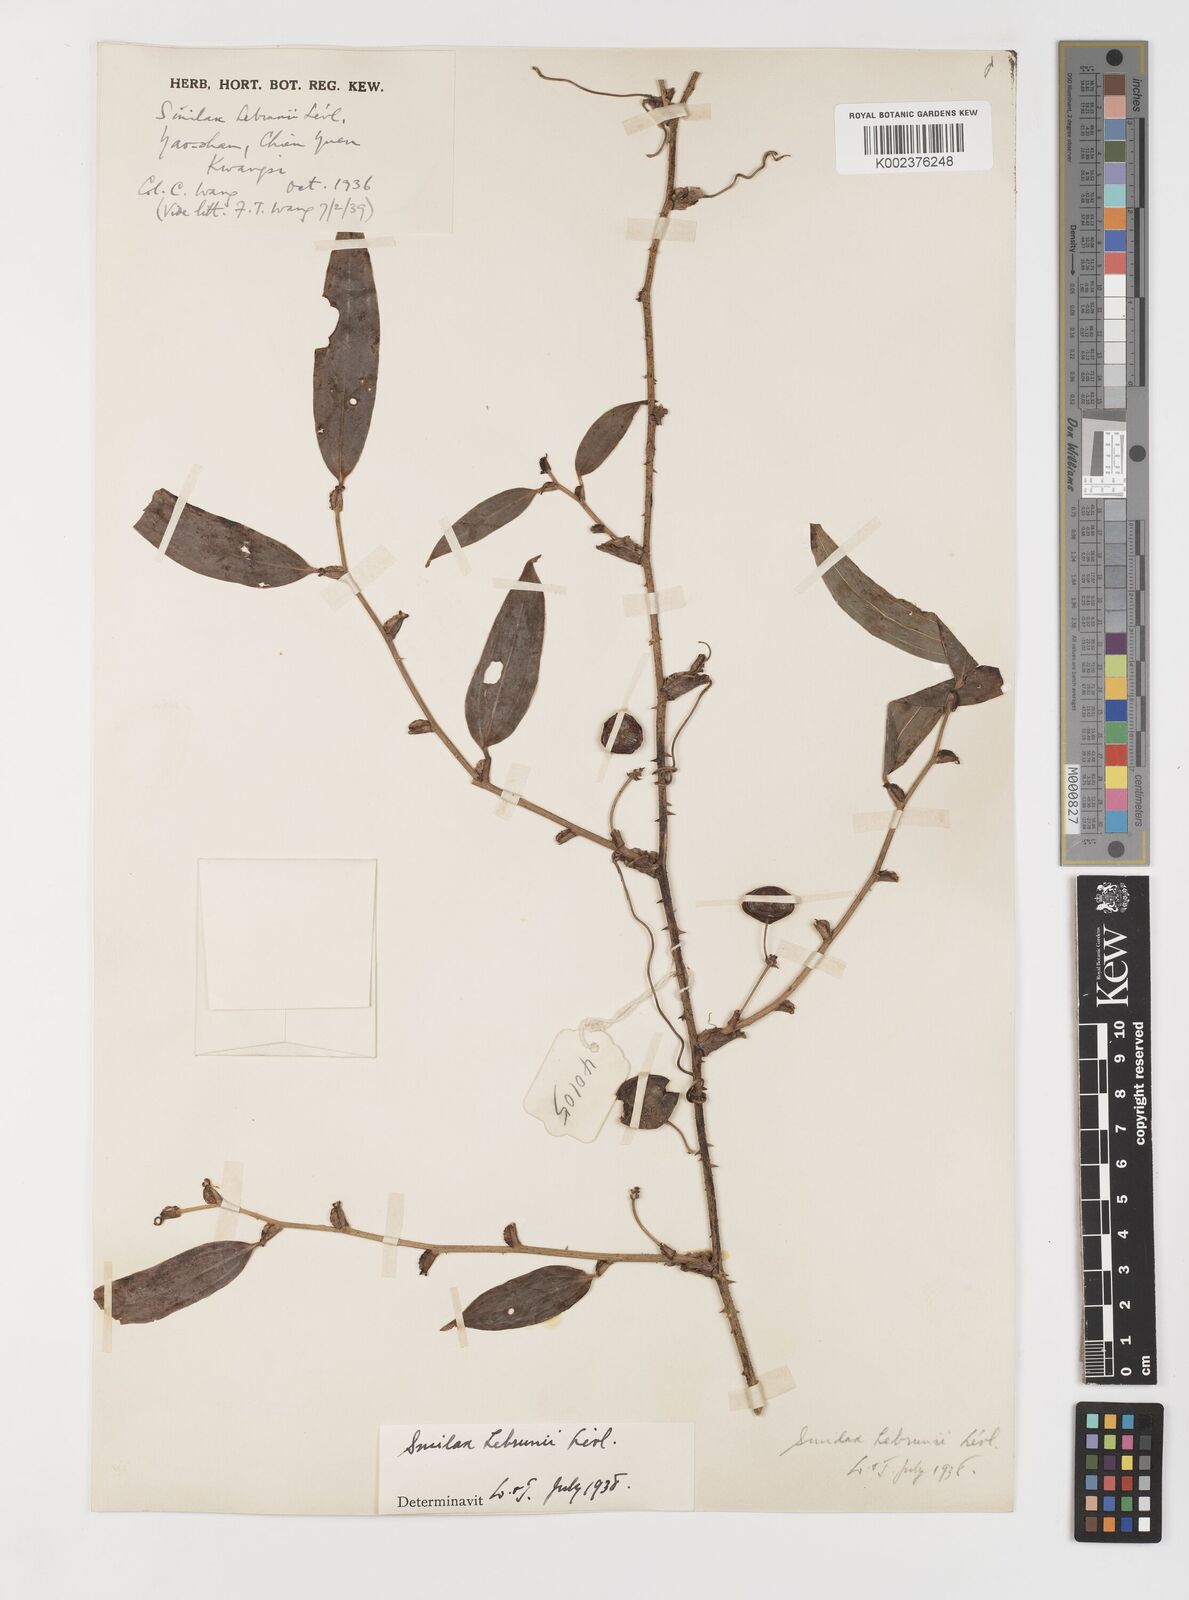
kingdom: Plantae
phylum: Tracheophyta
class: Liliopsida
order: Liliales
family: Smilacaceae
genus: Smilax
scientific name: Smilax lebrunii
